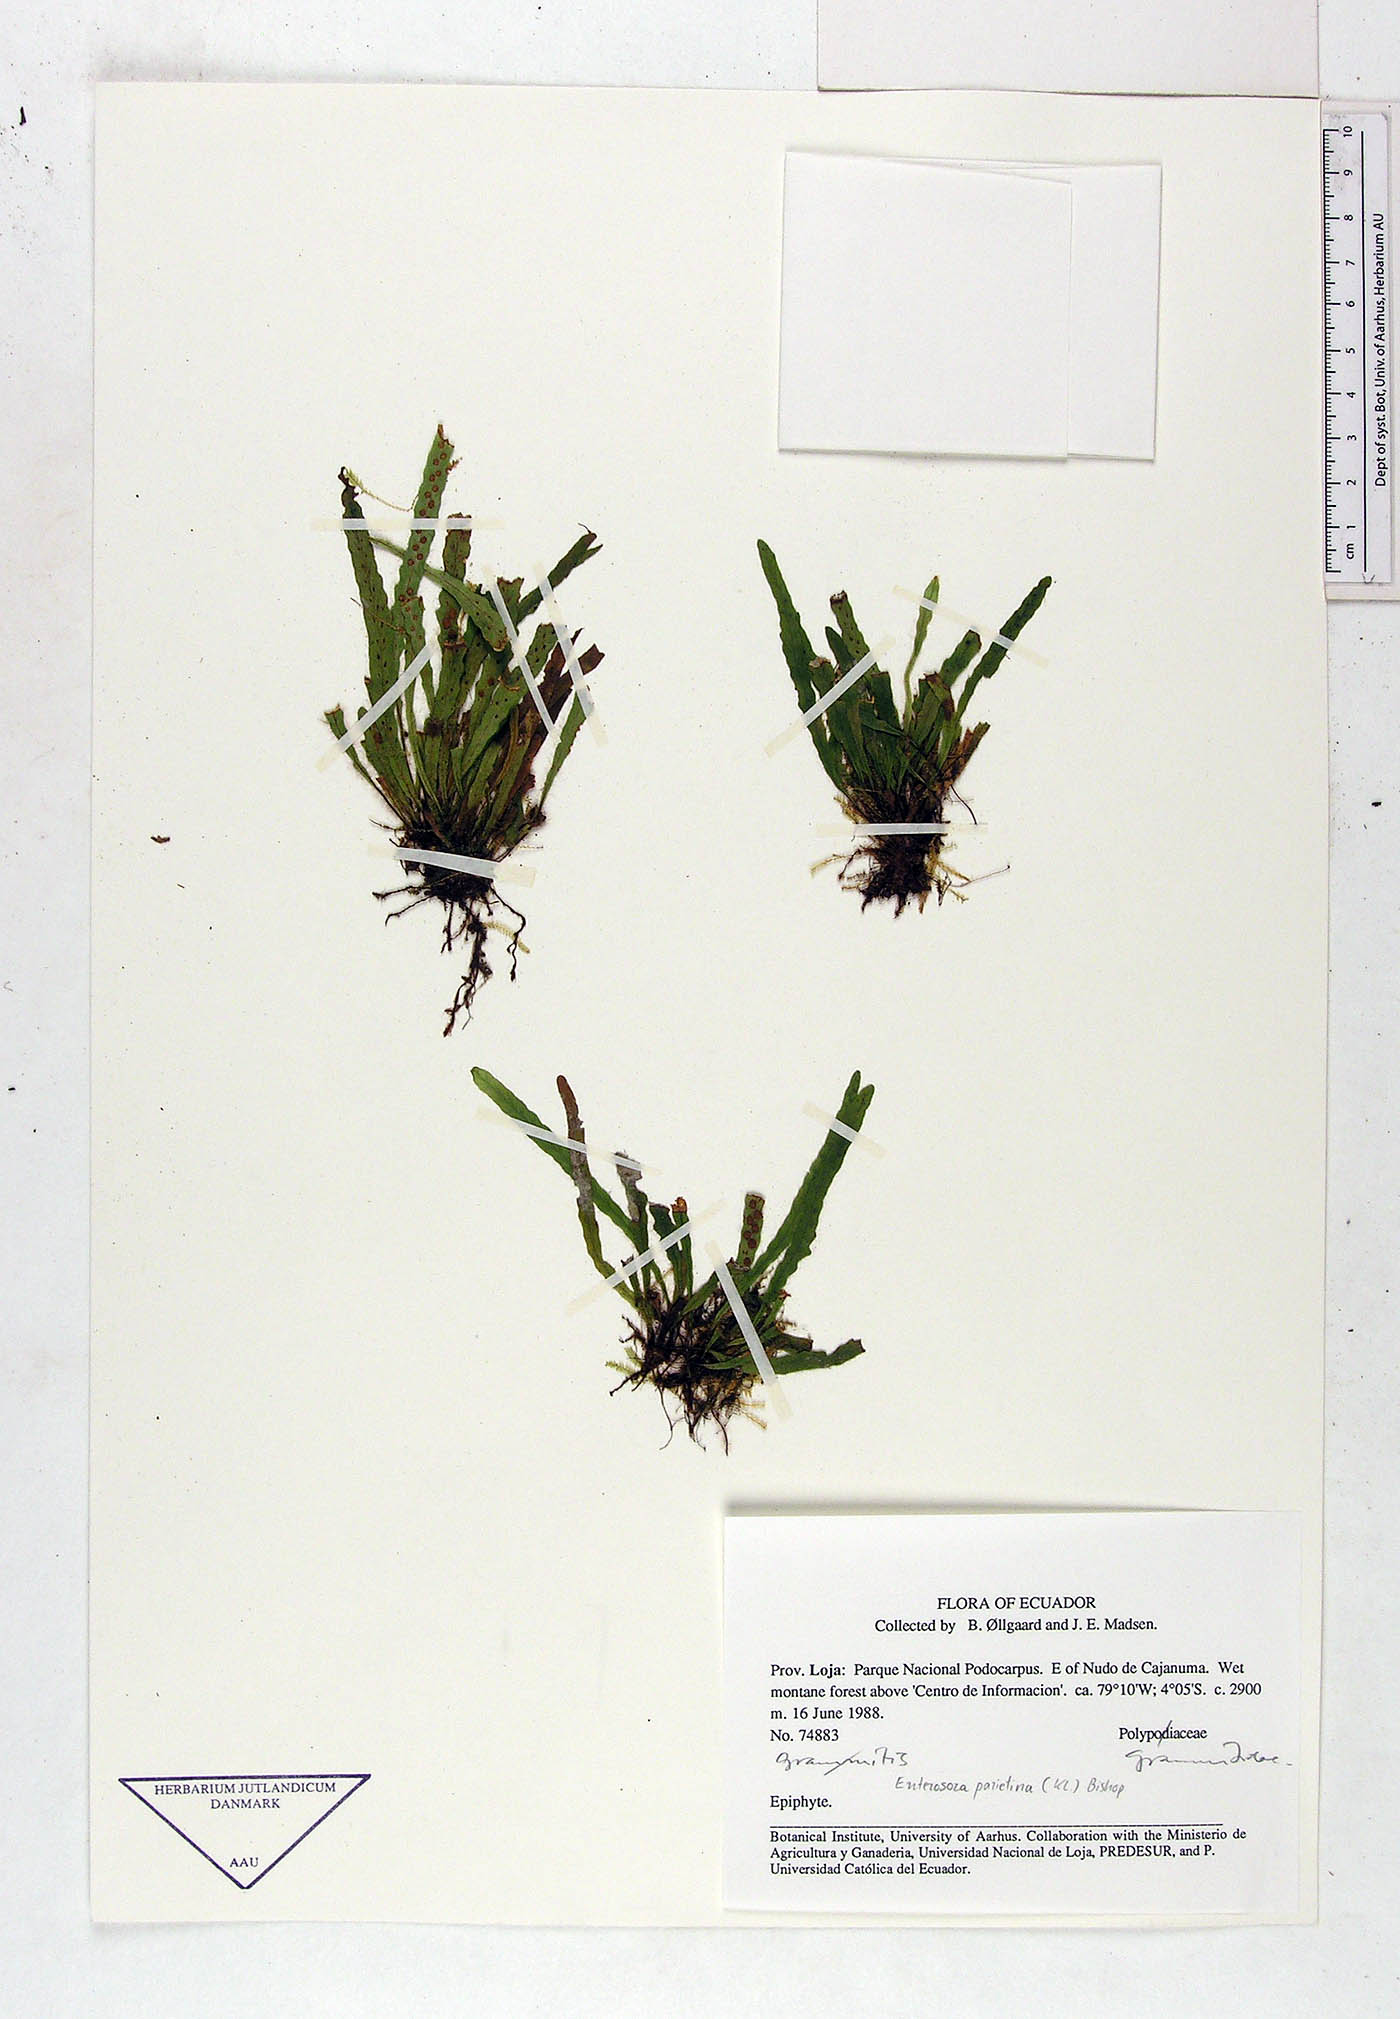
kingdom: Plantae
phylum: Tracheophyta
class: Polypodiopsida
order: Polypodiales
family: Polypodiaceae
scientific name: Polypodiaceae
